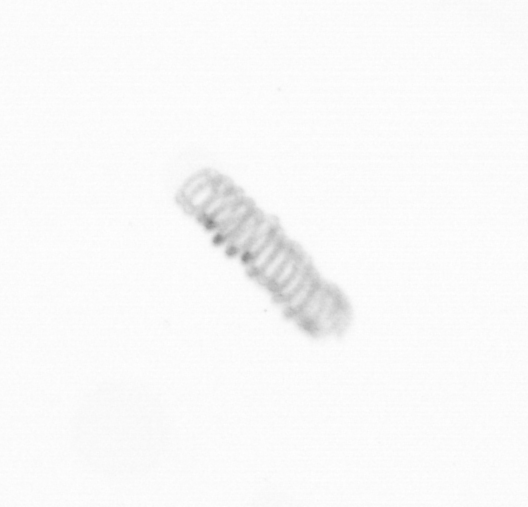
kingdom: Chromista
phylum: Ochrophyta
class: Bacillariophyceae
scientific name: Bacillariophyceae
